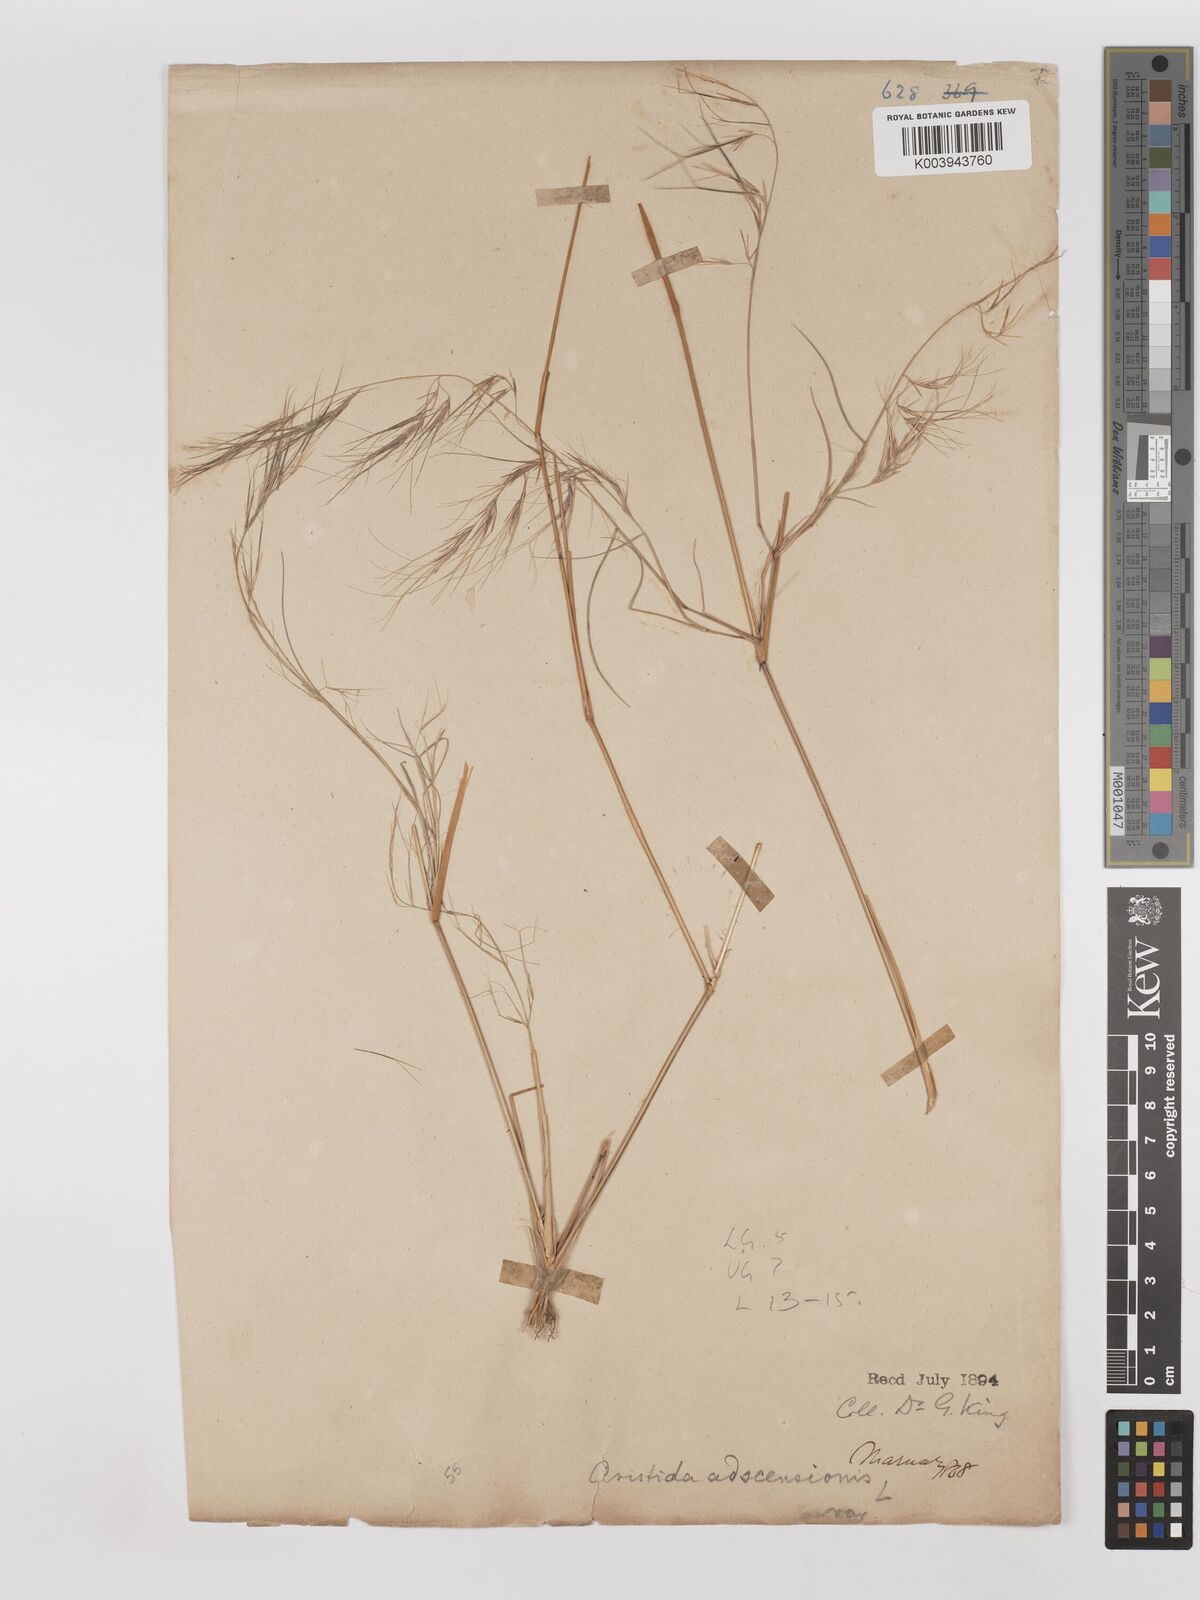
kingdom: Plantae
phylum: Tracheophyta
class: Liliopsida
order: Poales
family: Poaceae
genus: Aristida
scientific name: Aristida adscensionis
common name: Sixweeks threeawn
